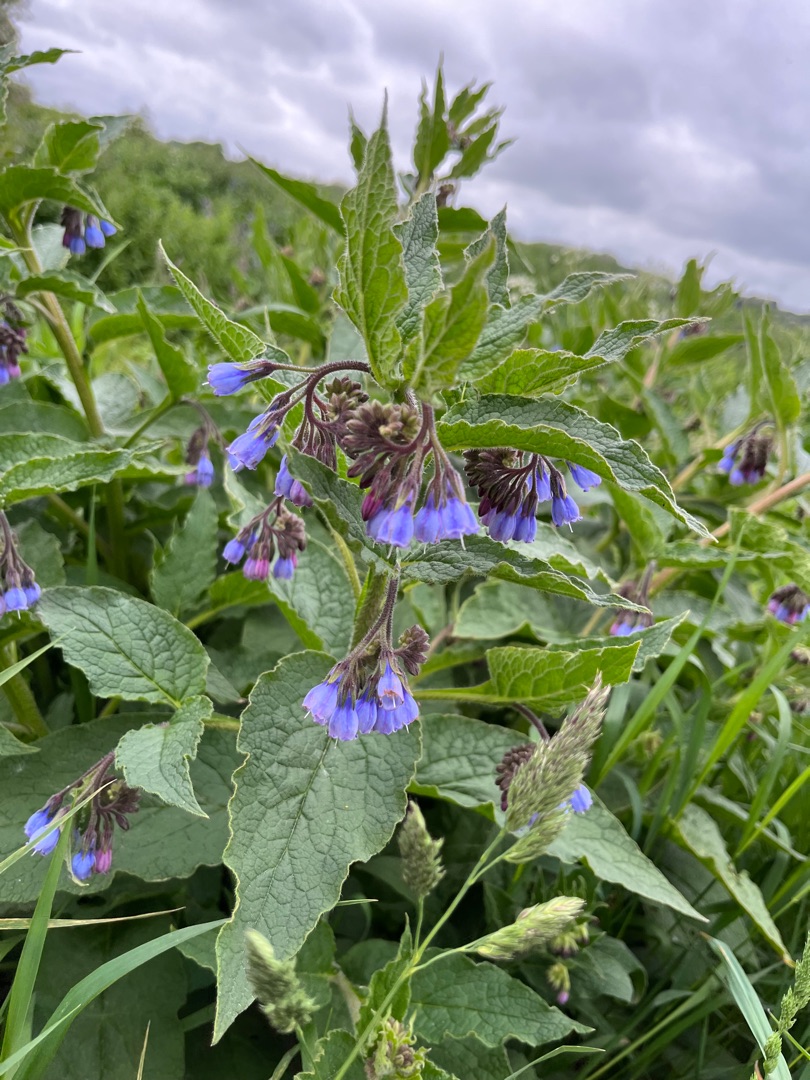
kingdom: Plantae
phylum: Tracheophyta
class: Magnoliopsida
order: Boraginales
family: Boraginaceae
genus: Symphytum
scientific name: Symphytum uplandicum
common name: Foder-kulsukker
